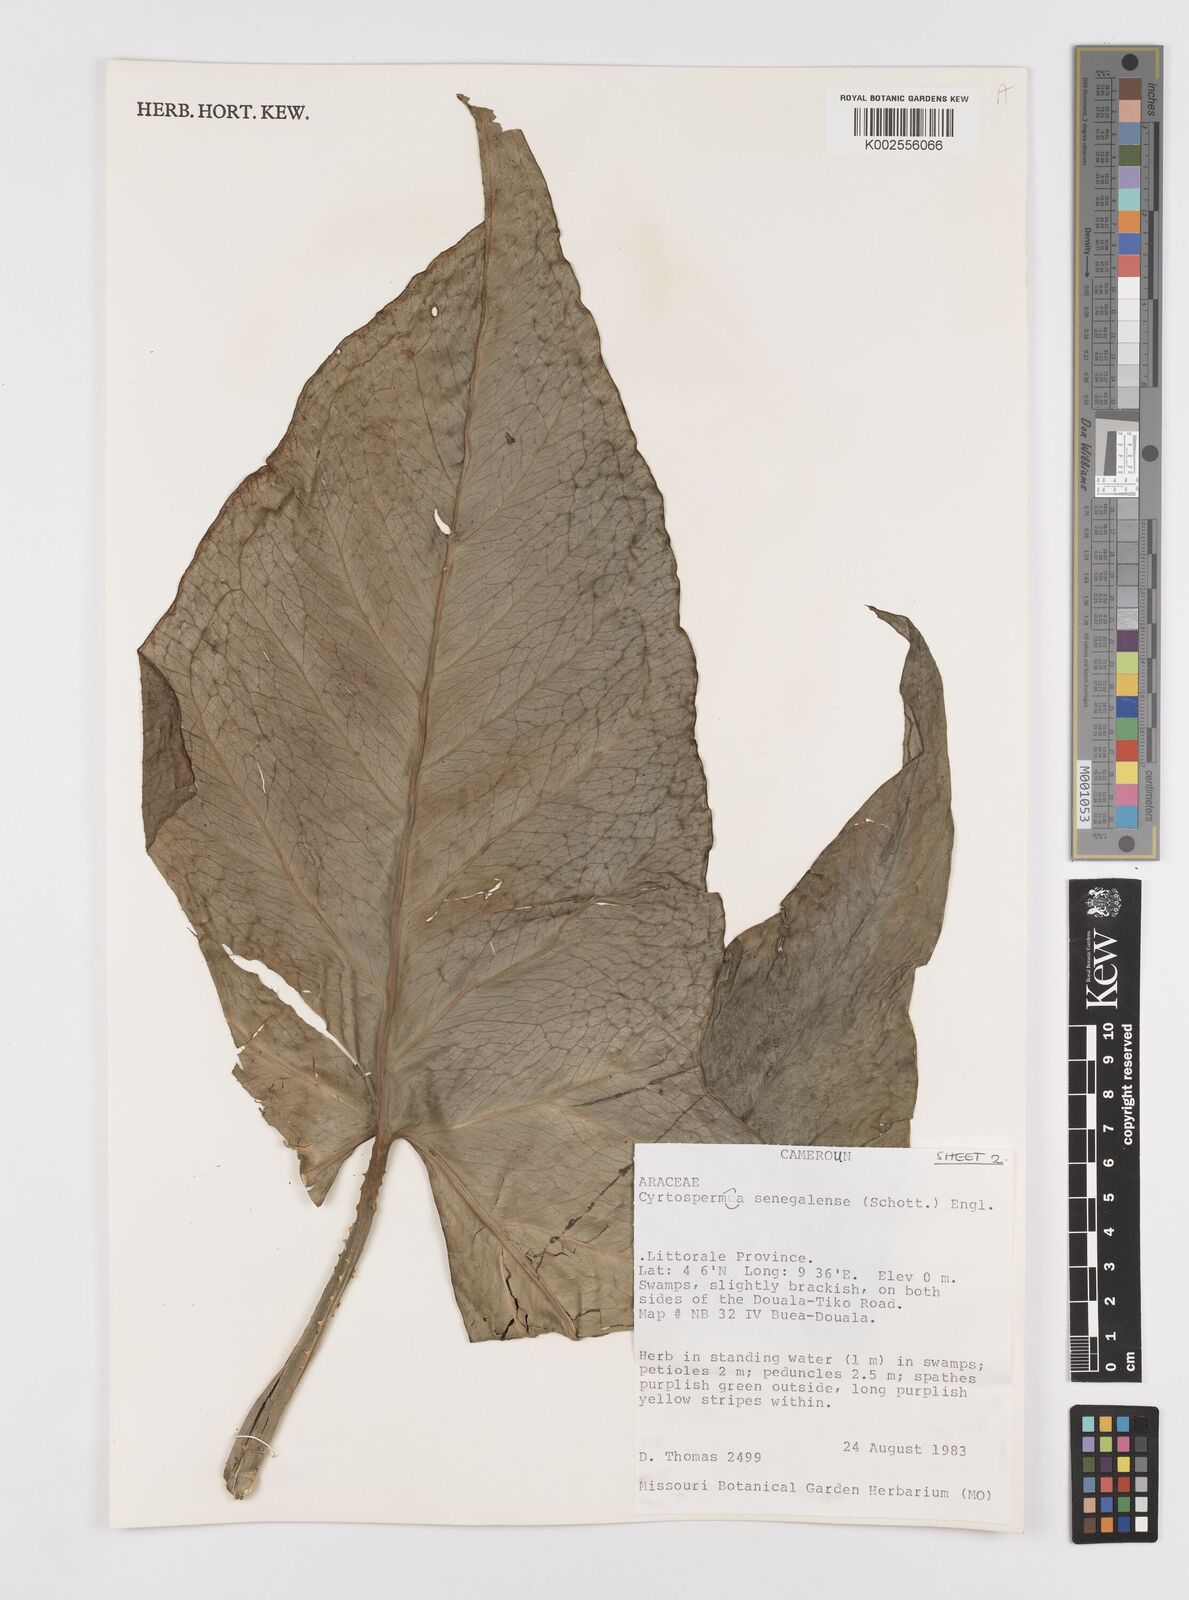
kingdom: Plantae
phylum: Tracheophyta
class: Liliopsida
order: Alismatales
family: Araceae
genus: Lasimorpha
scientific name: Lasimorpha senegalensis
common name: Swamp arum
